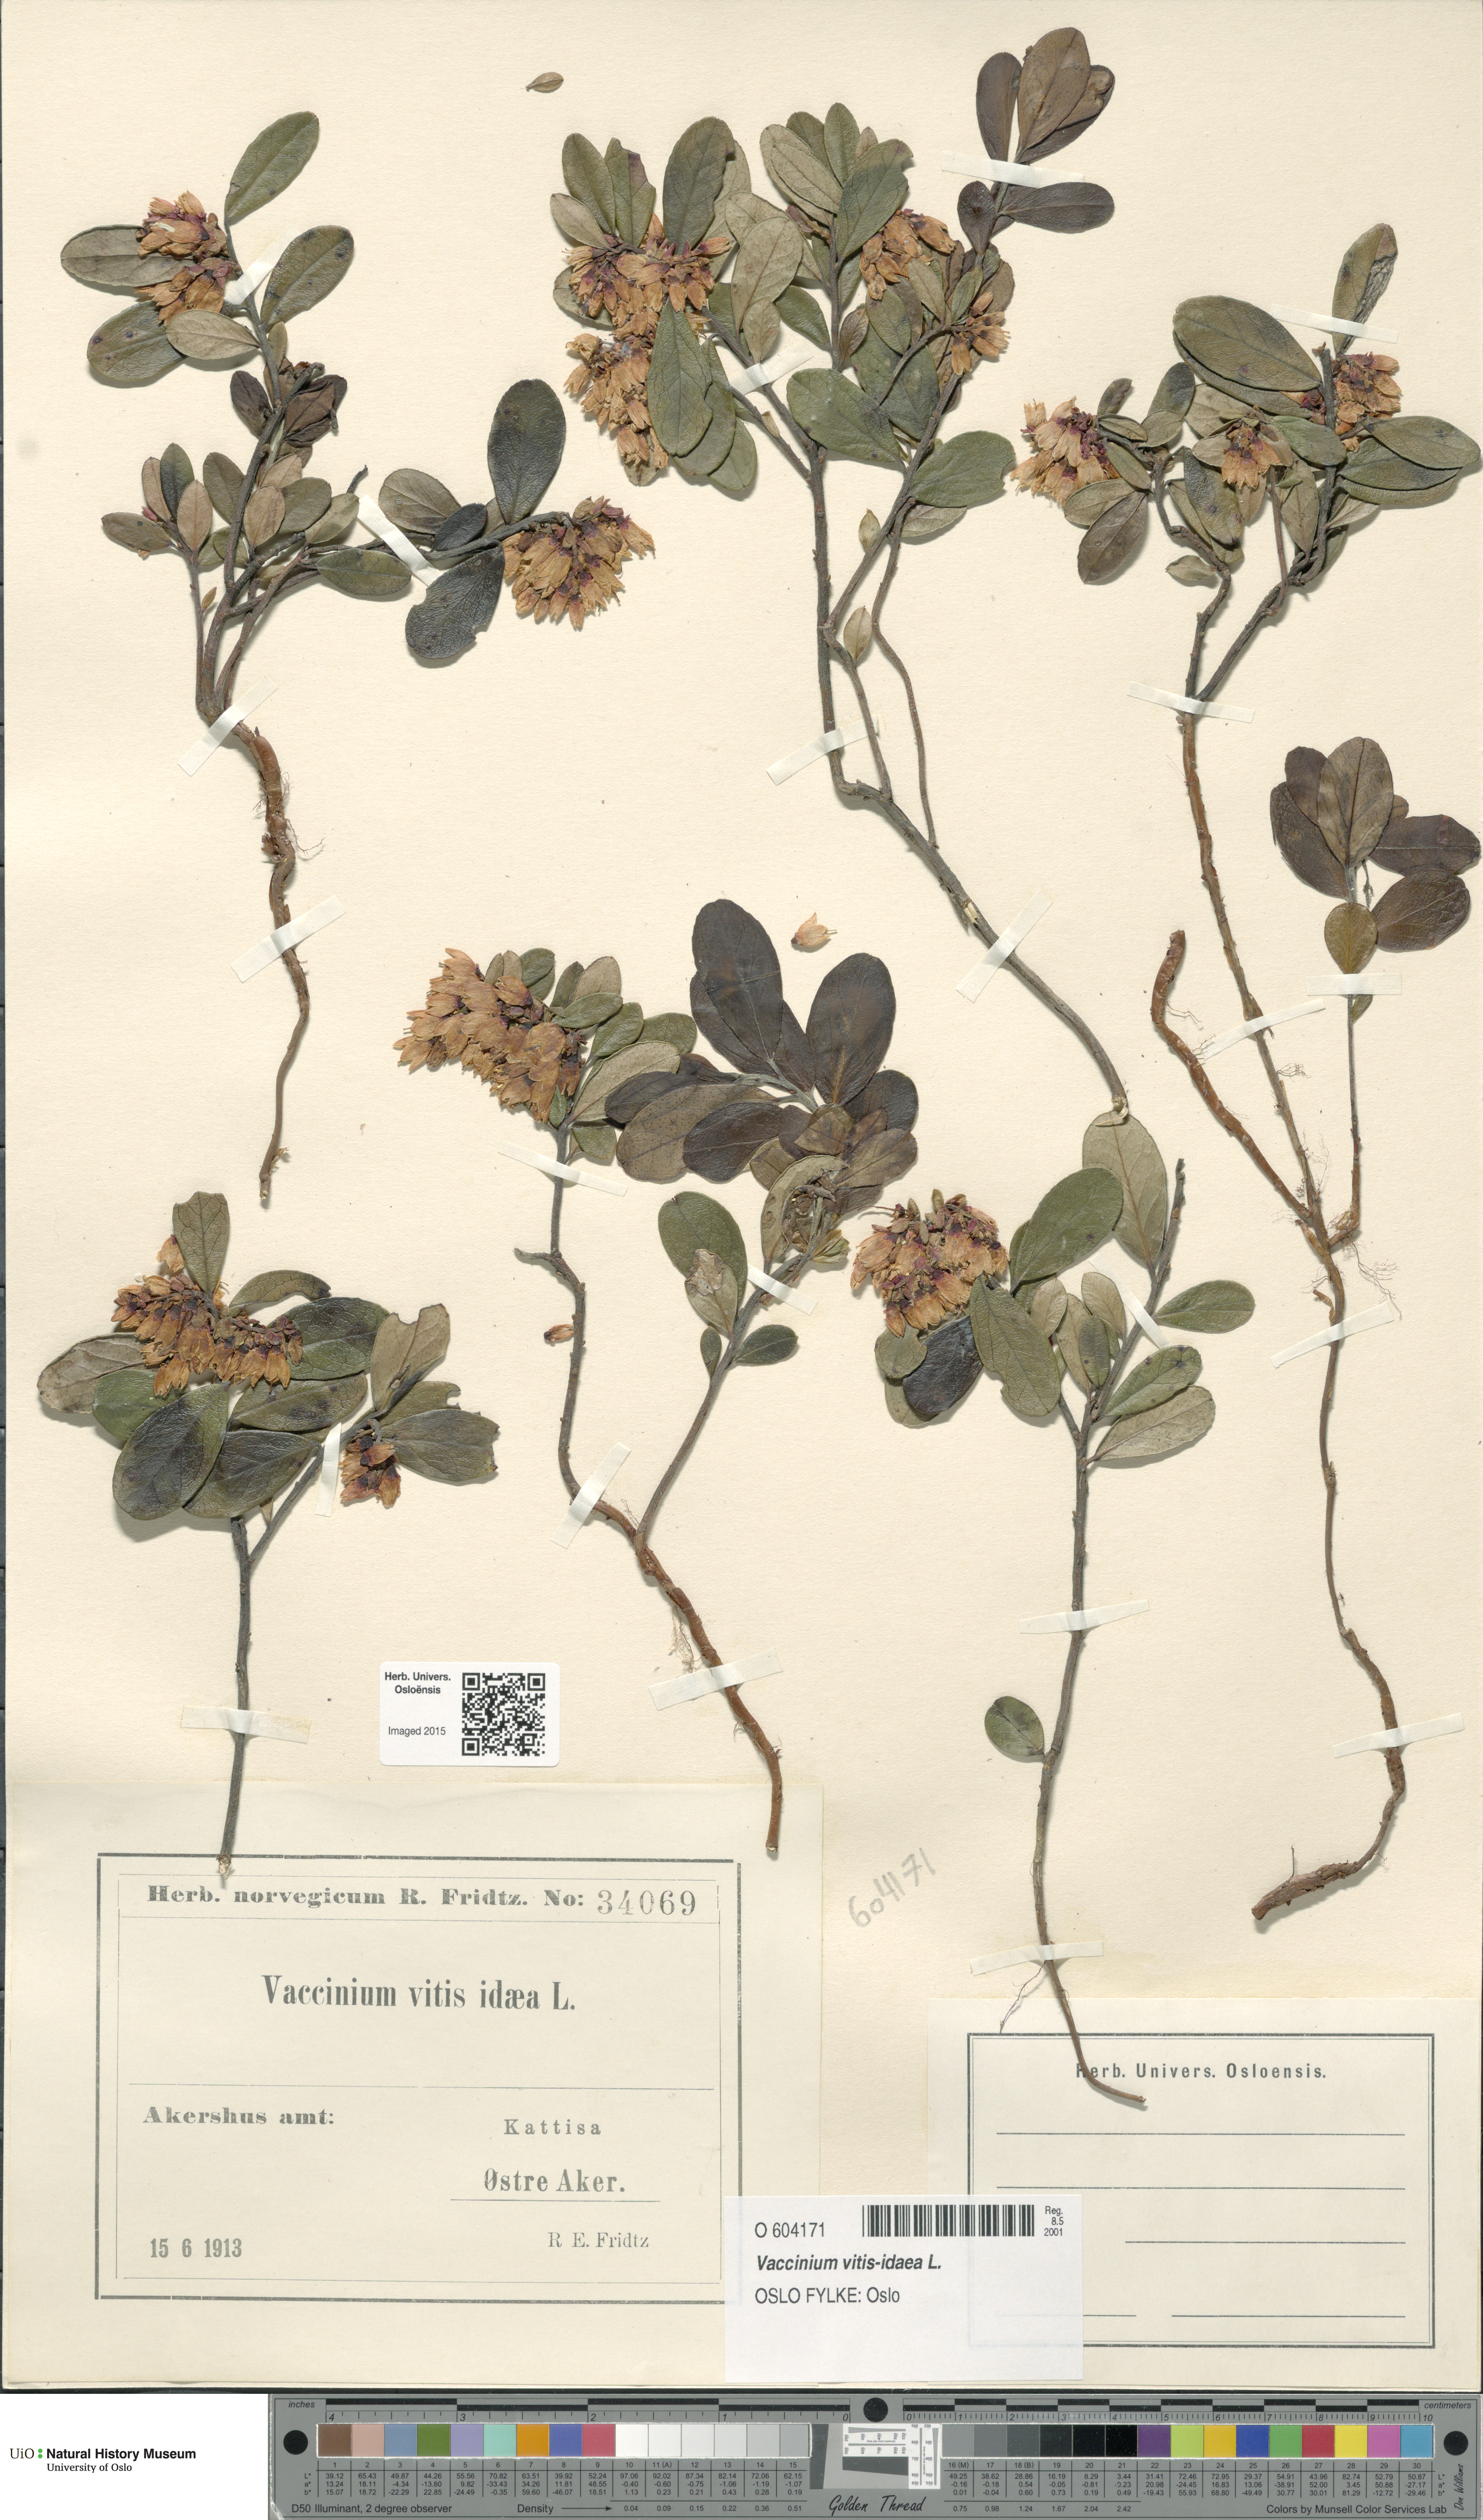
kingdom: Plantae
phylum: Tracheophyta
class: Magnoliopsida
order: Ericales
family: Ericaceae
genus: Vaccinium
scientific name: Vaccinium vitis-idaea
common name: Cowberry
